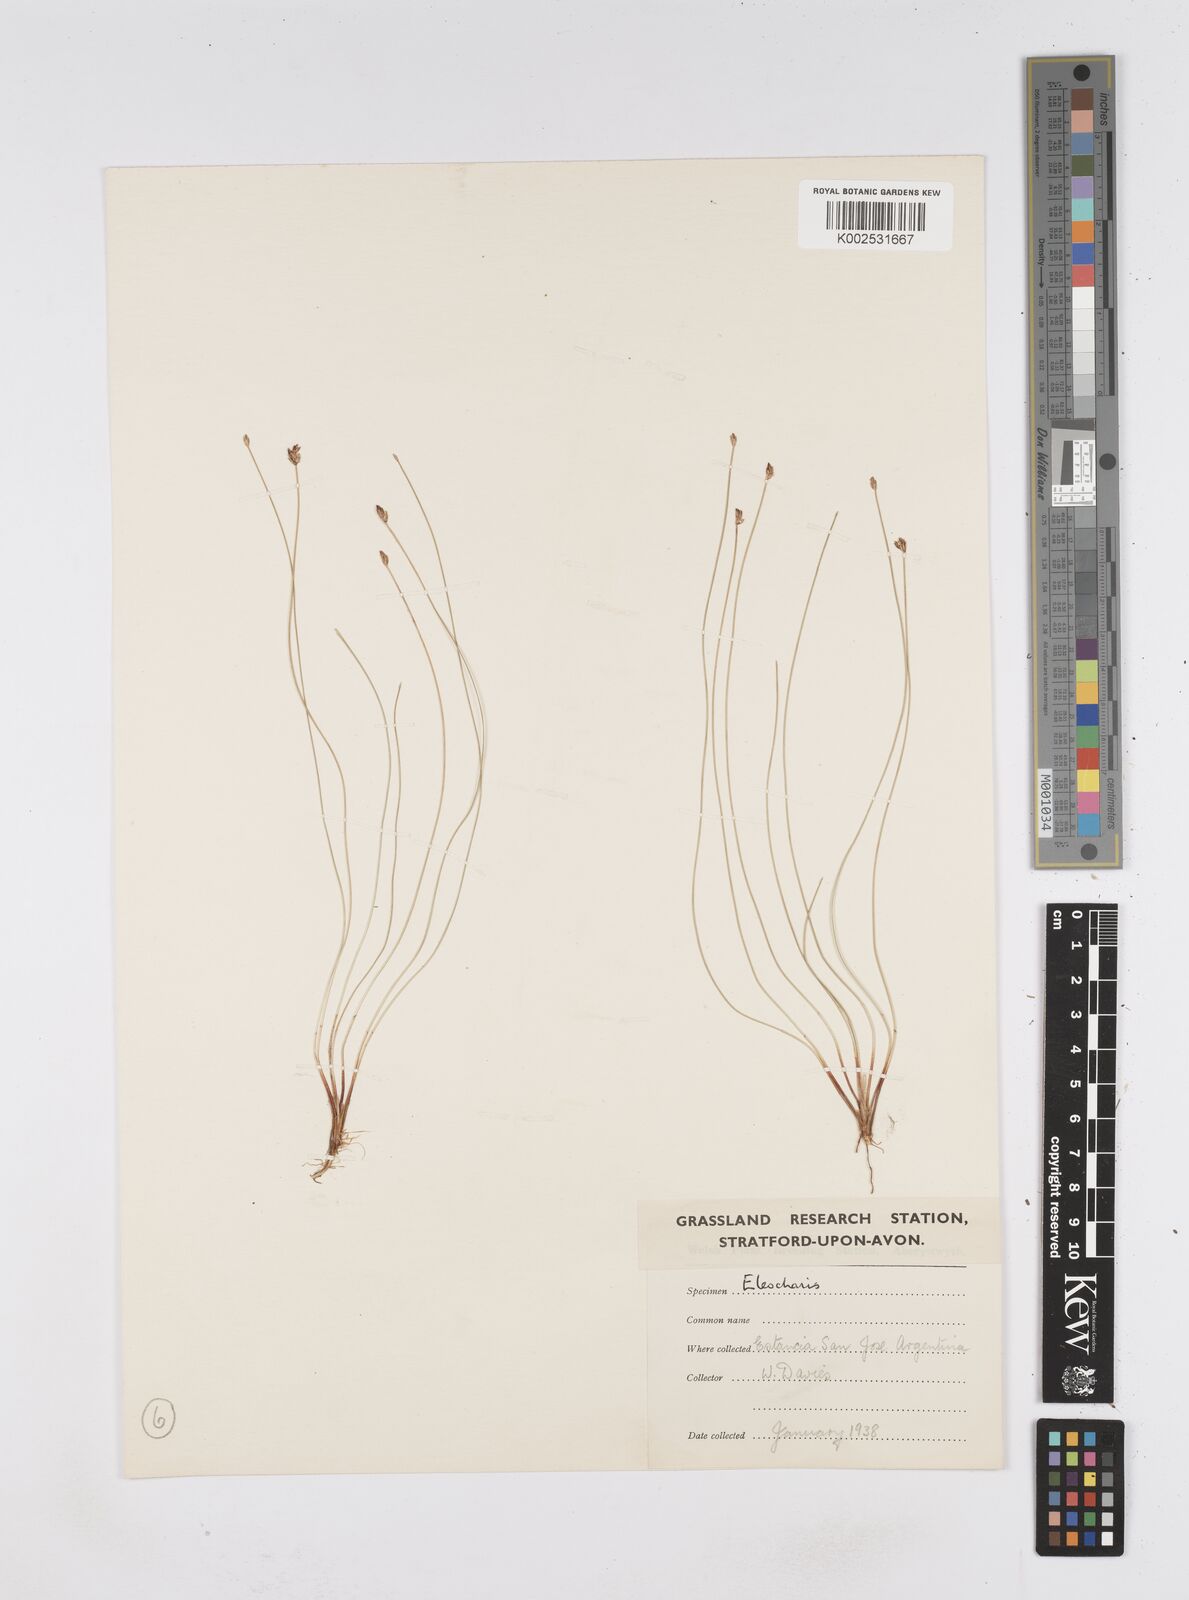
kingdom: Plantae
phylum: Tracheophyta
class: Liliopsida
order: Poales
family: Cyperaceae
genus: Eleocharis
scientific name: Eleocharis
